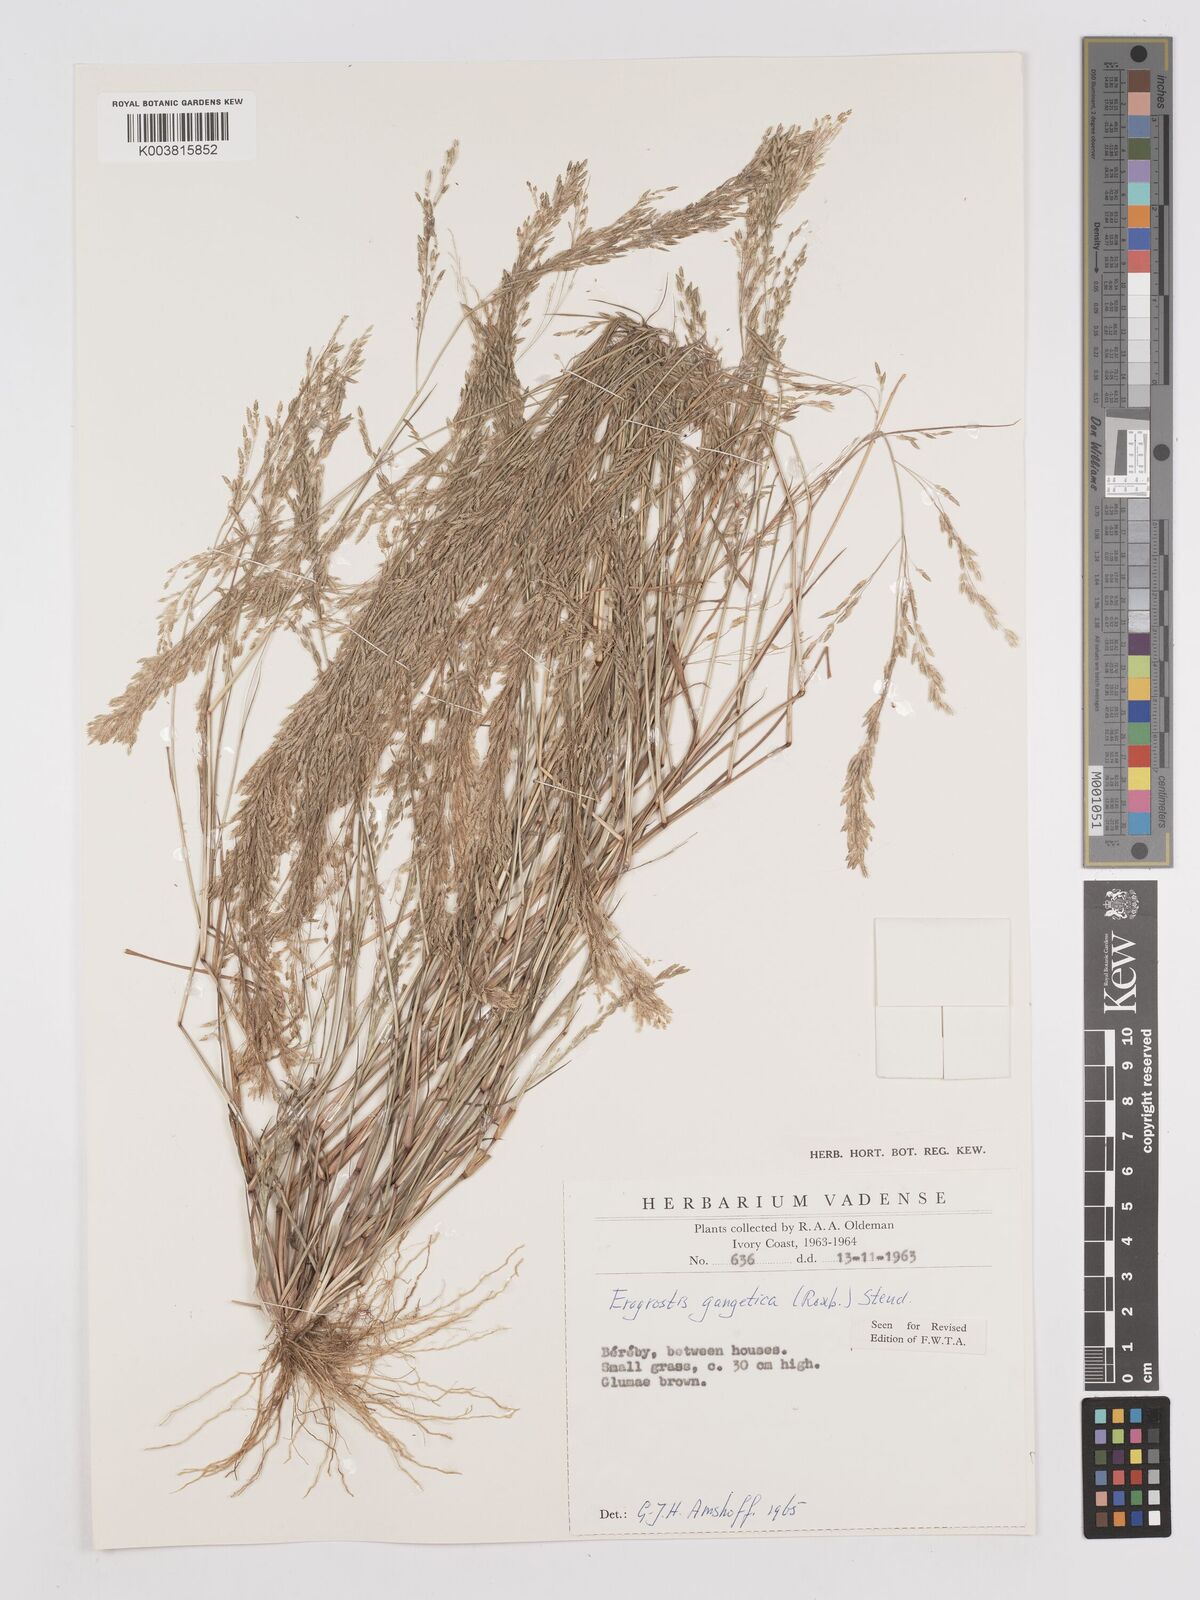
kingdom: Plantae
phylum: Tracheophyta
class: Liliopsida
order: Poales
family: Poaceae
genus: Eragrostis
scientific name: Eragrostis gangetica
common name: Slimflower lovegrass
